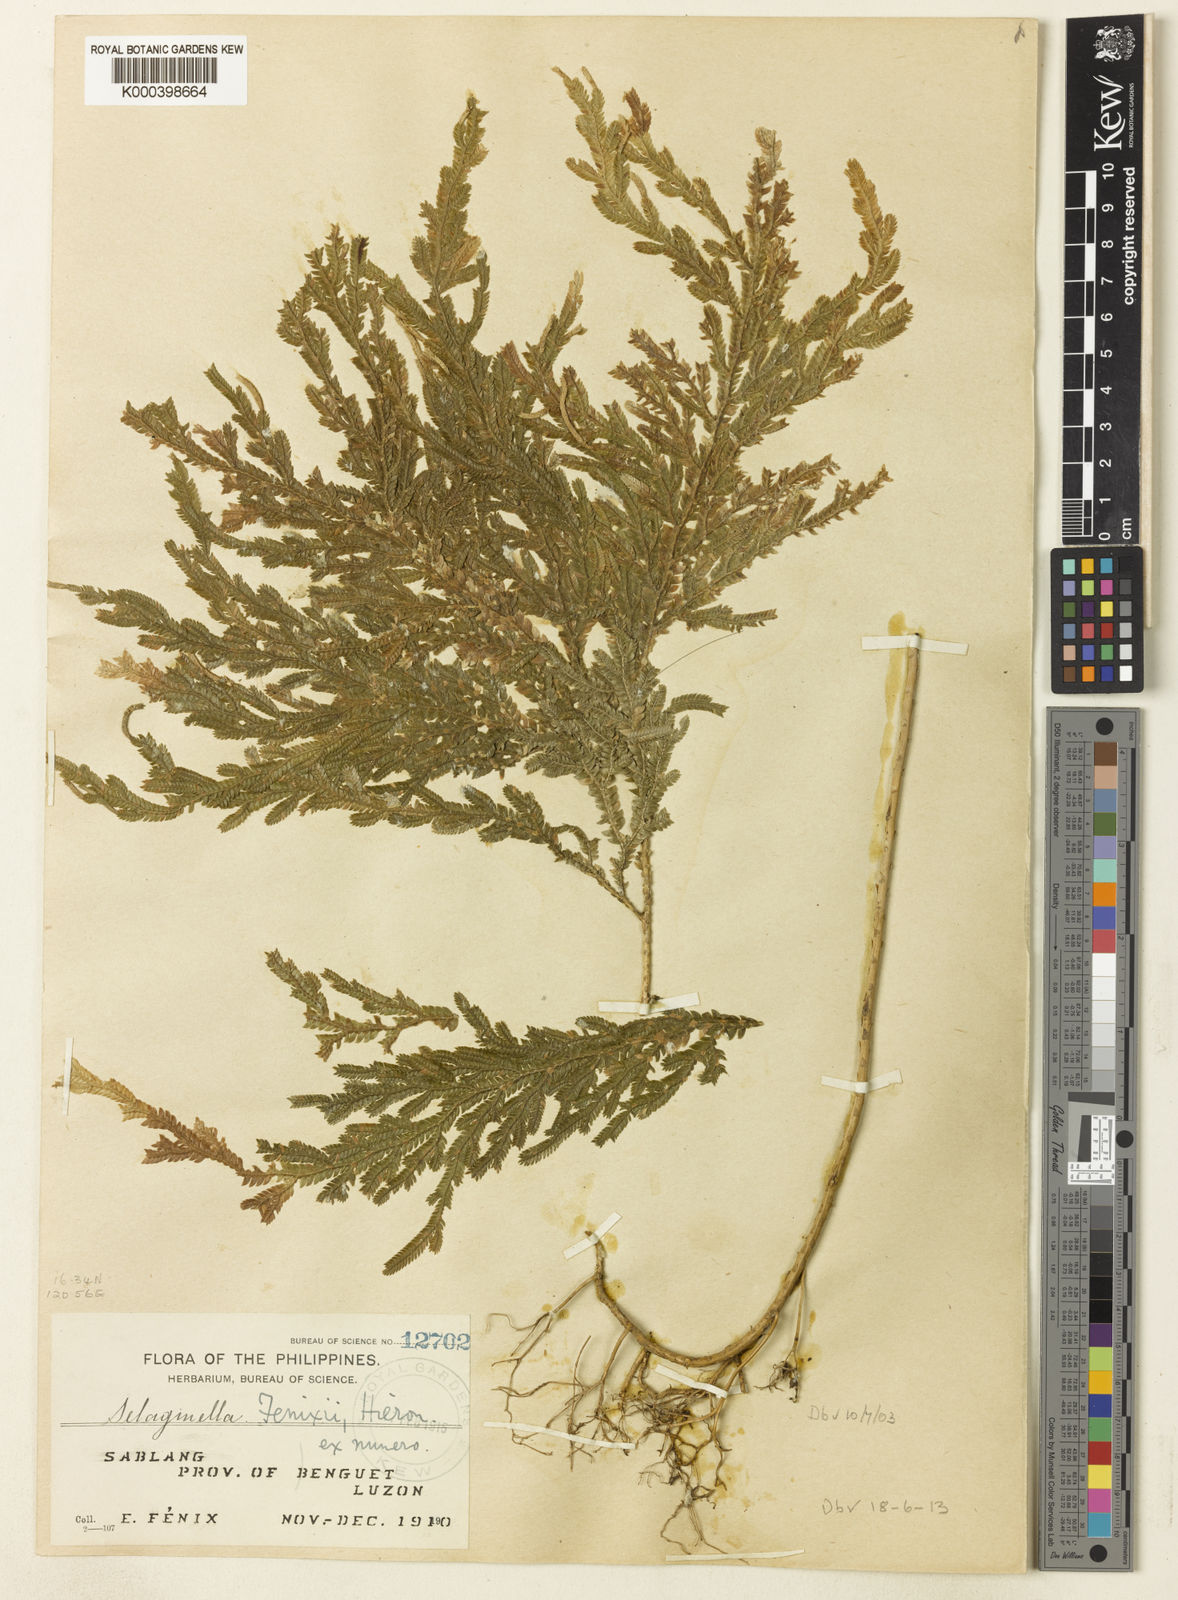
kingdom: Plantae
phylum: Tracheophyta
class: Lycopodiopsida
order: Selaginellales
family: Selaginellaceae
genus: Selaginella
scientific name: Selaginella fenixii
